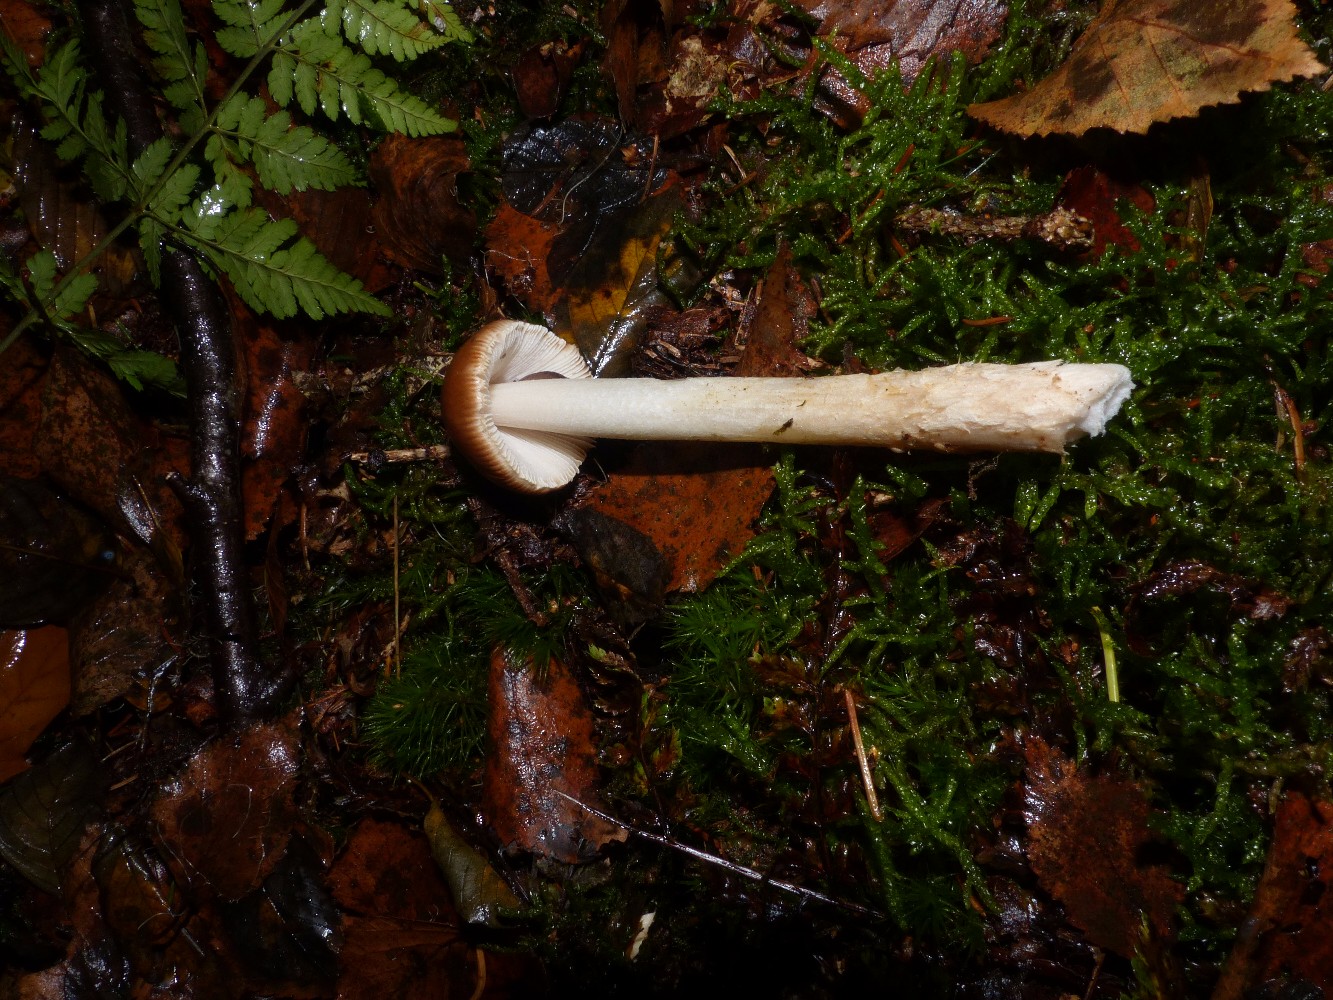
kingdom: Fungi
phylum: Basidiomycota
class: Agaricomycetes
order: Agaricales
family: Amanitaceae
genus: Amanita
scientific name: Amanita fulva
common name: brun kam-fluesvamp
